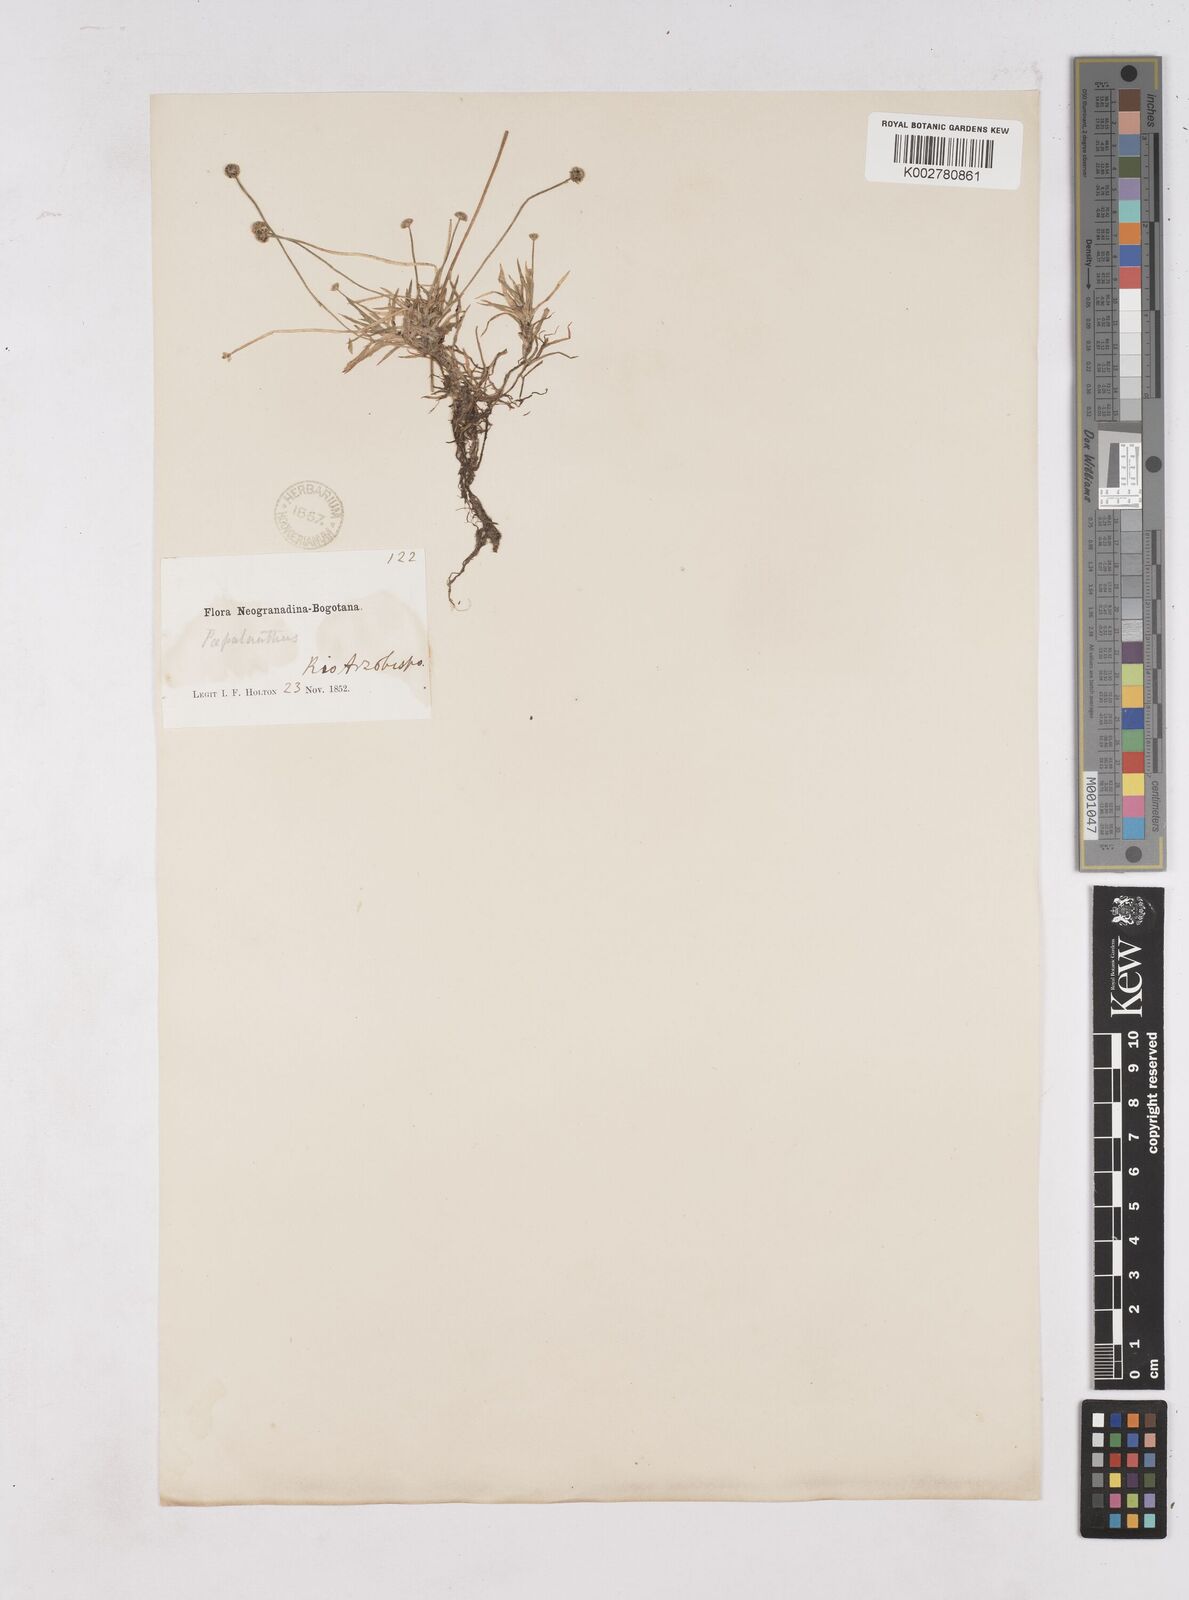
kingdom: Plantae
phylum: Tracheophyta
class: Liliopsida
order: Poales
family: Eriocaulaceae
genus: Paepalanthus
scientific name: Paepalanthus
